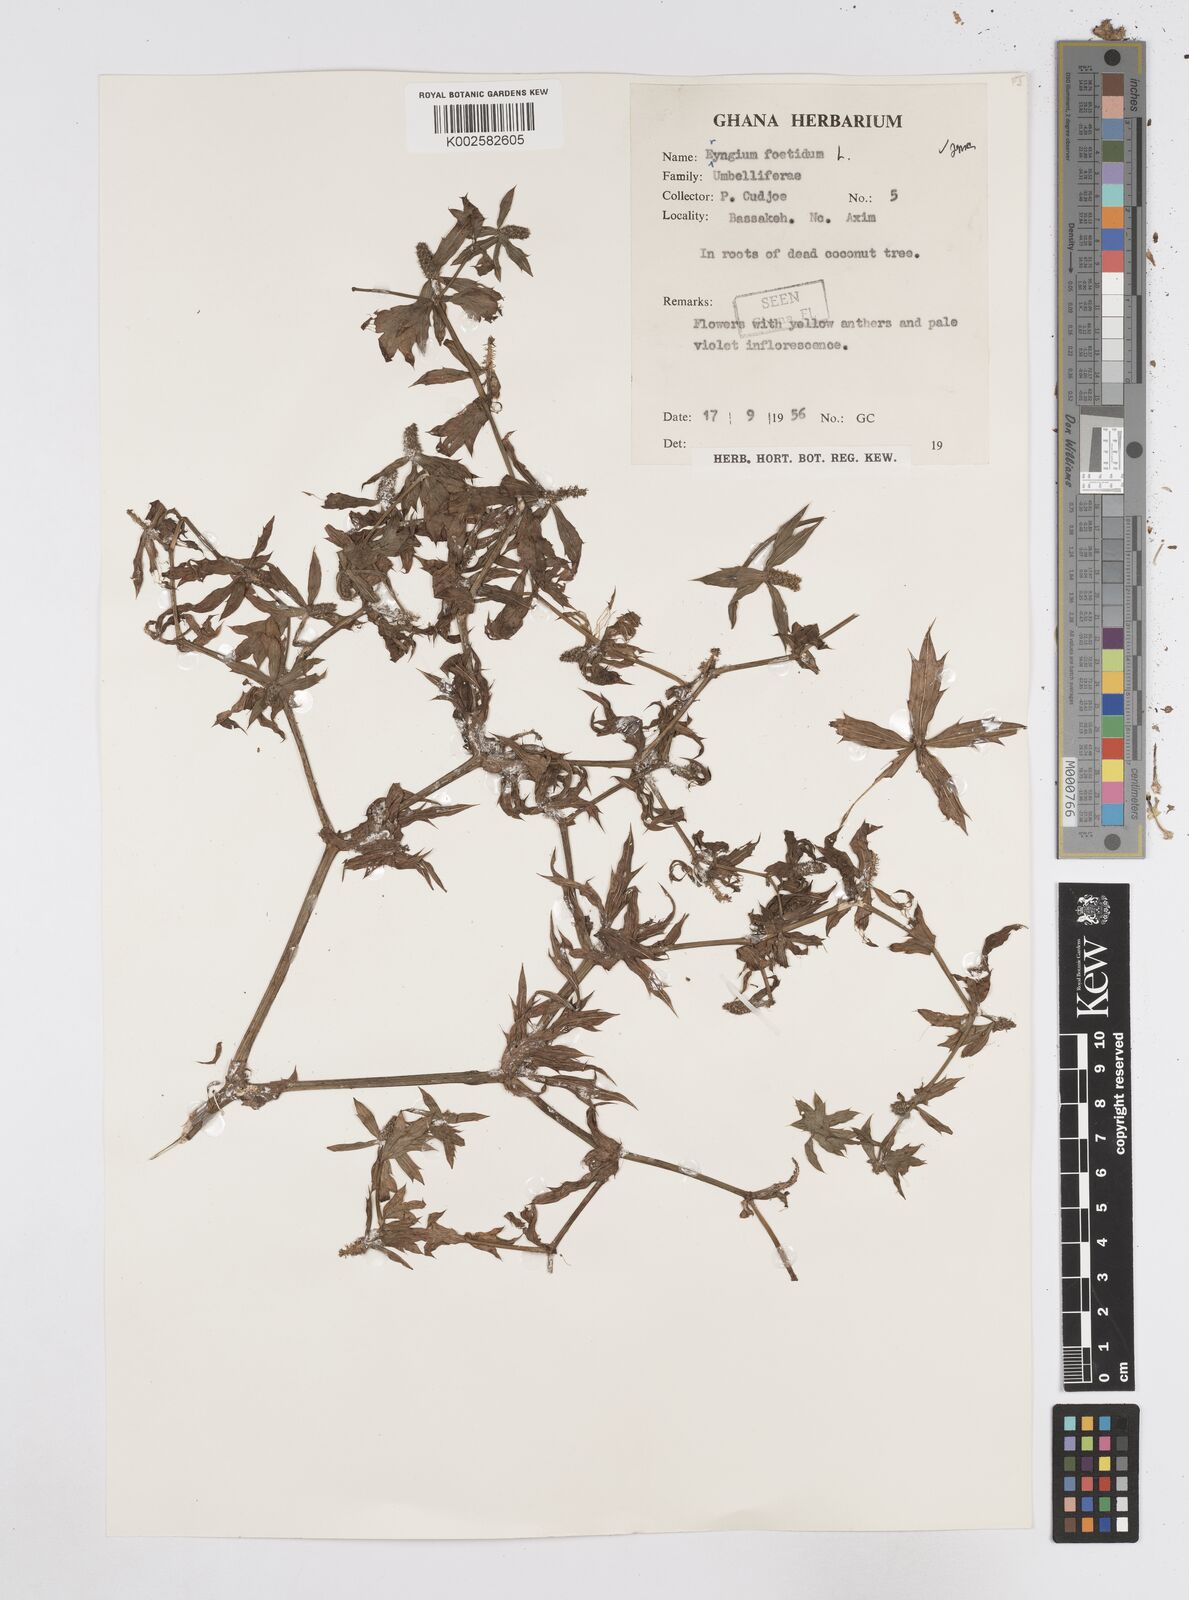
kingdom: Plantae
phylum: Tracheophyta
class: Magnoliopsida
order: Apiales
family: Apiaceae
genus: Eryngium
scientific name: Eryngium foetidum
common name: Fitweed
